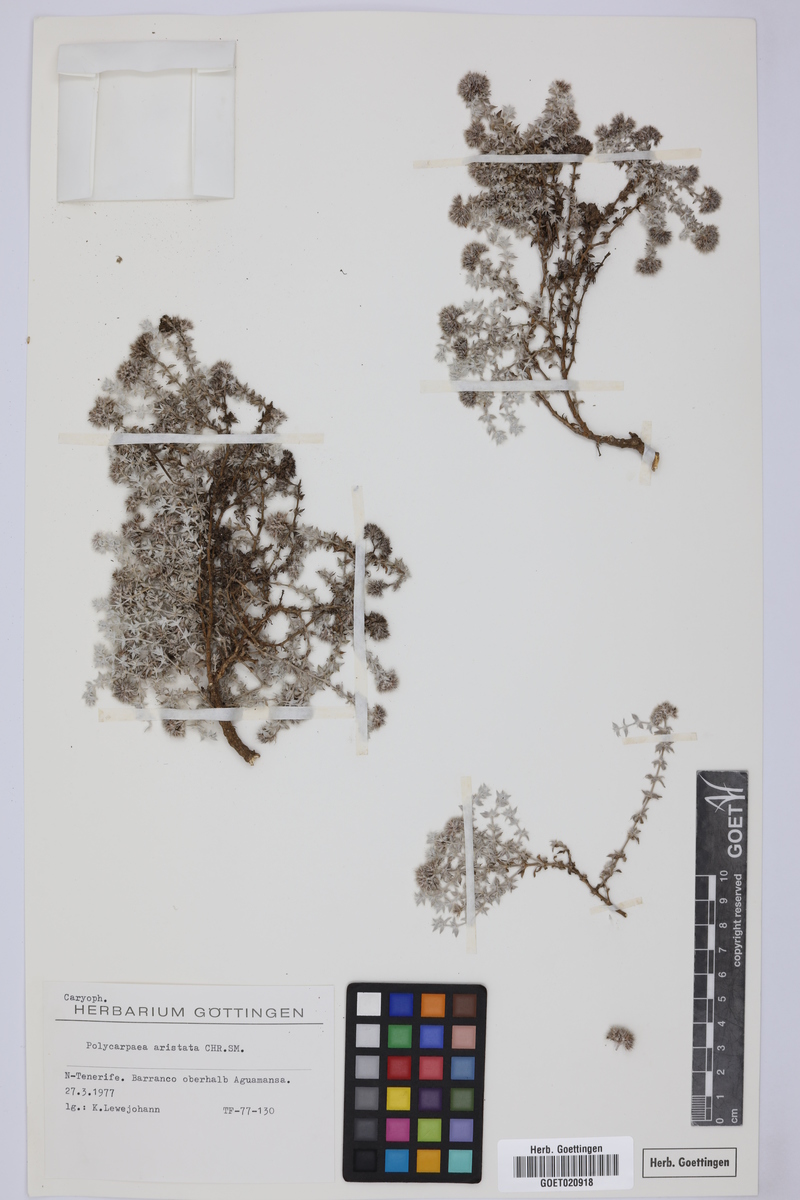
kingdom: Plantae
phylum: Tracheophyta
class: Magnoliopsida
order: Caryophyllales
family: Caryophyllaceae
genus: Polycarpaea
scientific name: Polycarpaea aristata
